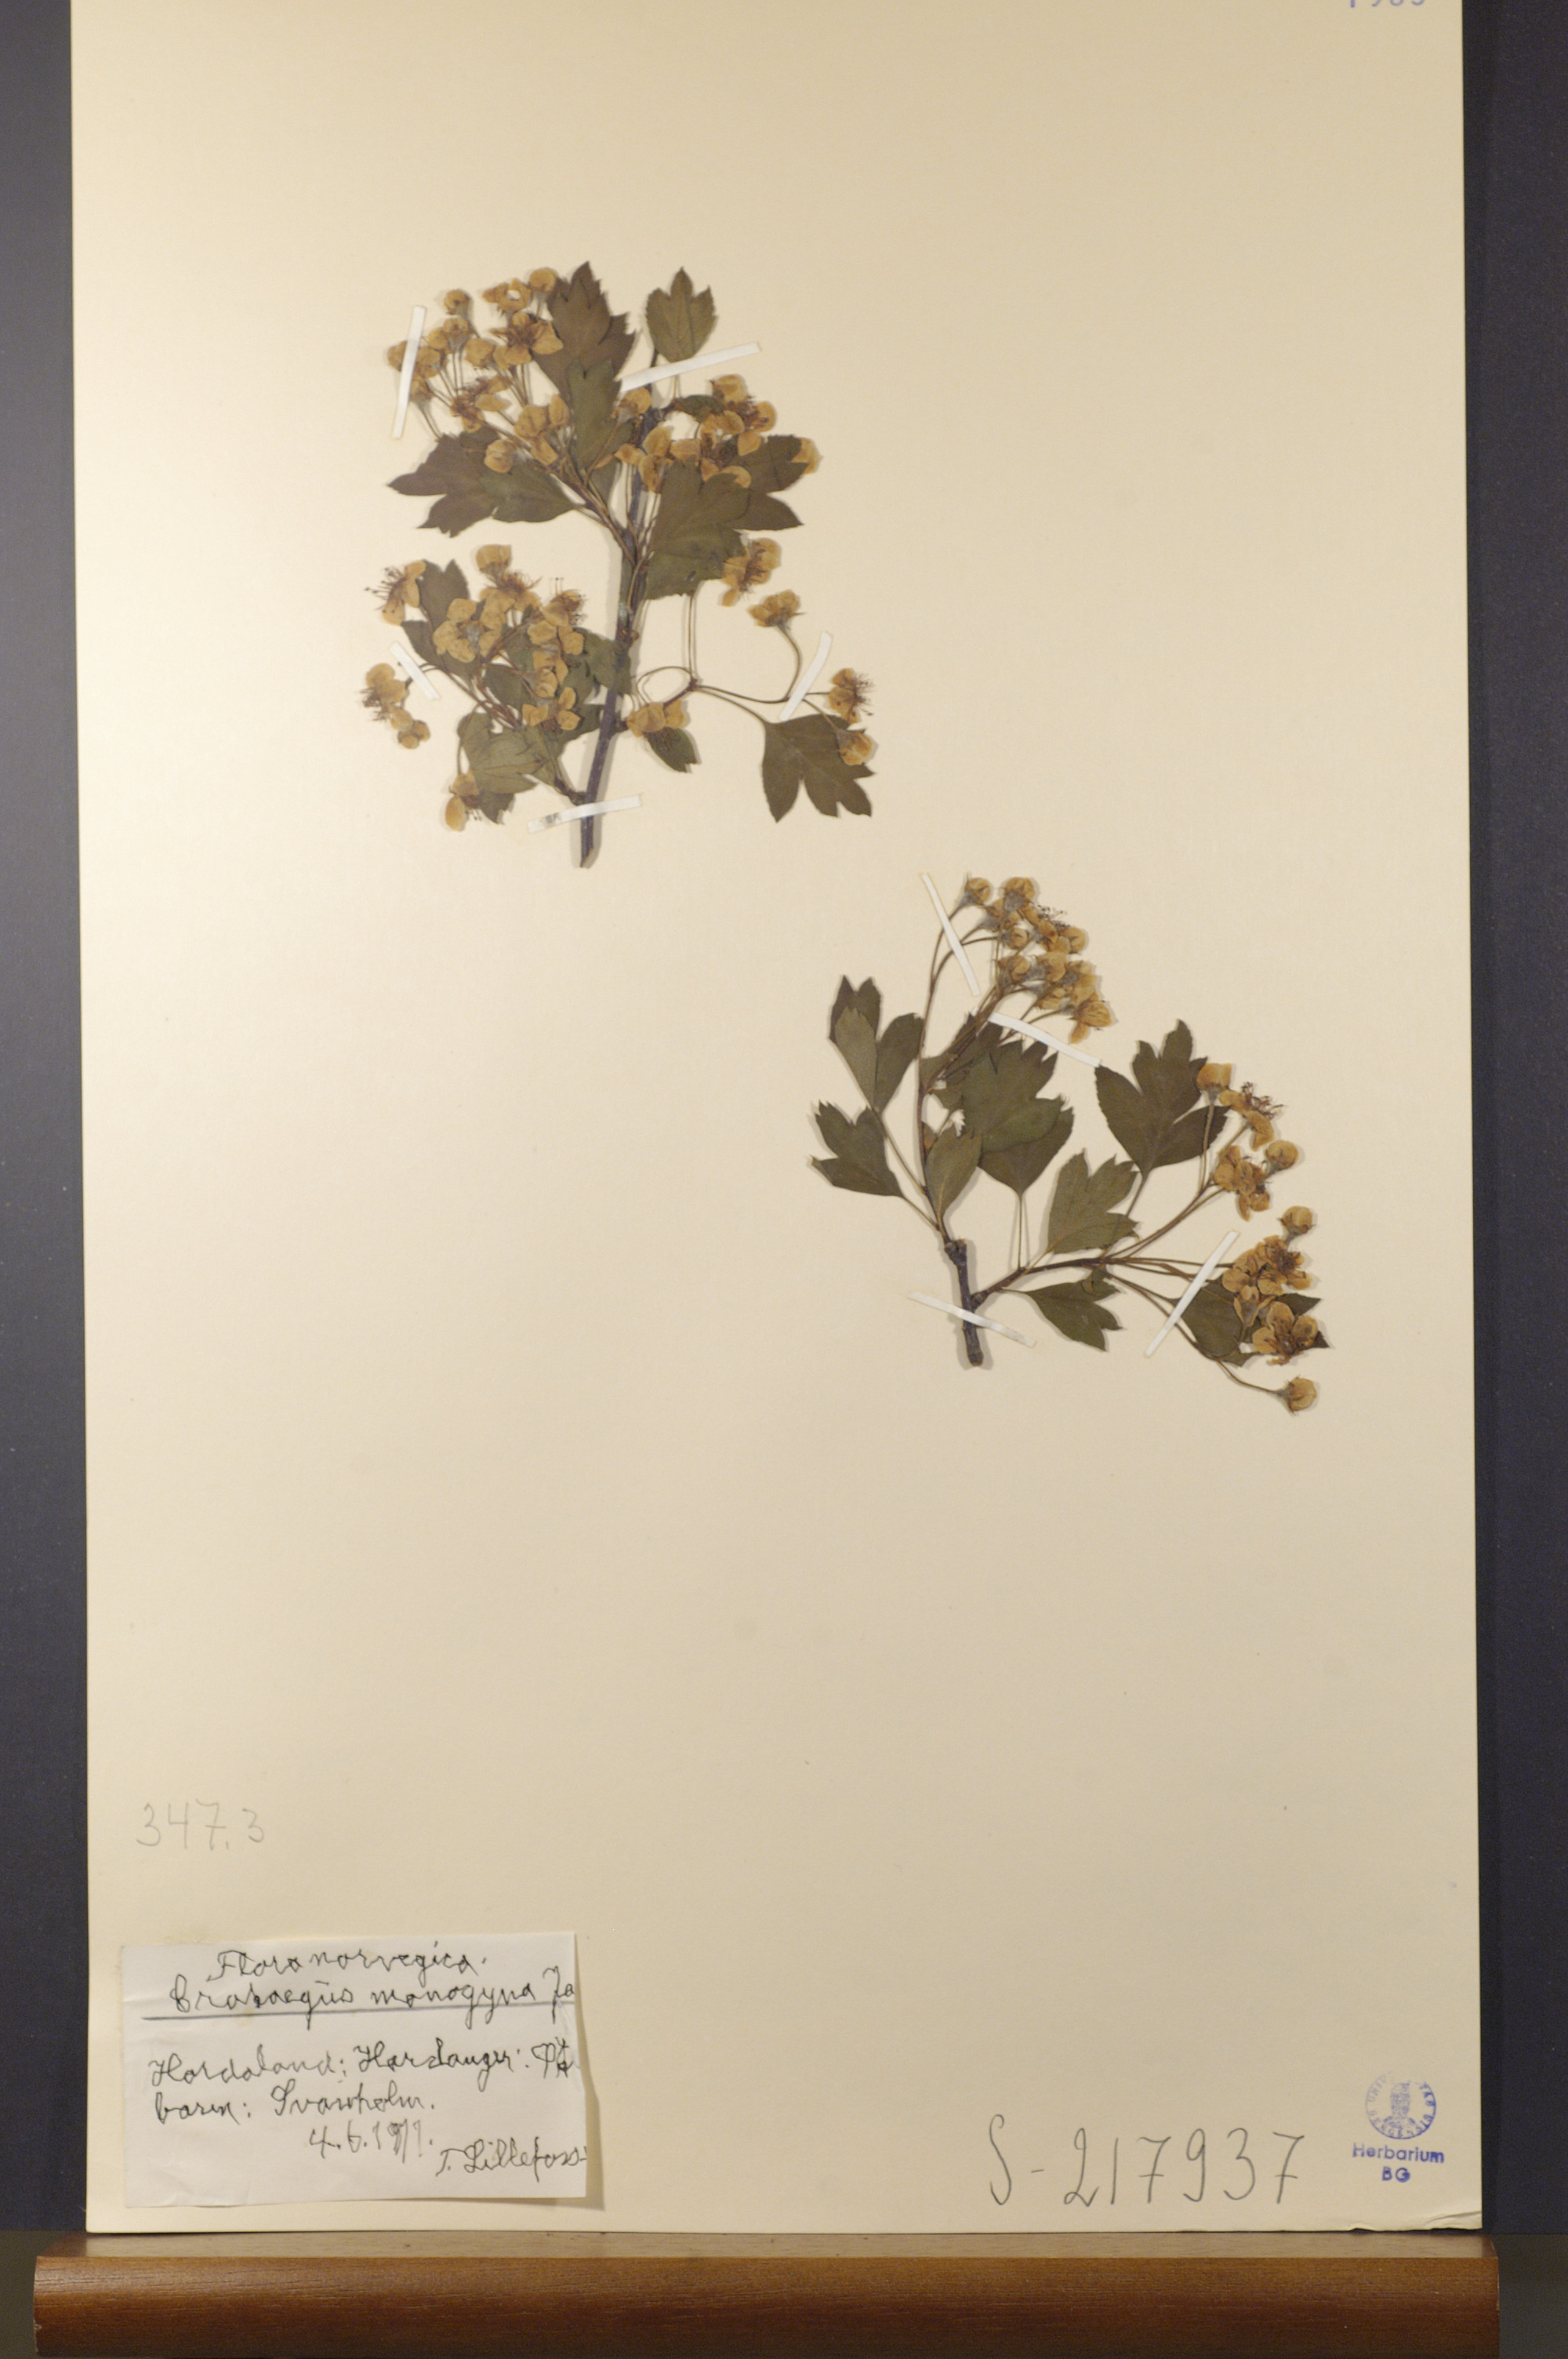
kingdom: Plantae
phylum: Tracheophyta
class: Magnoliopsida
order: Rosales
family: Rosaceae
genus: Crataegus
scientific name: Crataegus monogyna
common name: Hawthorn
